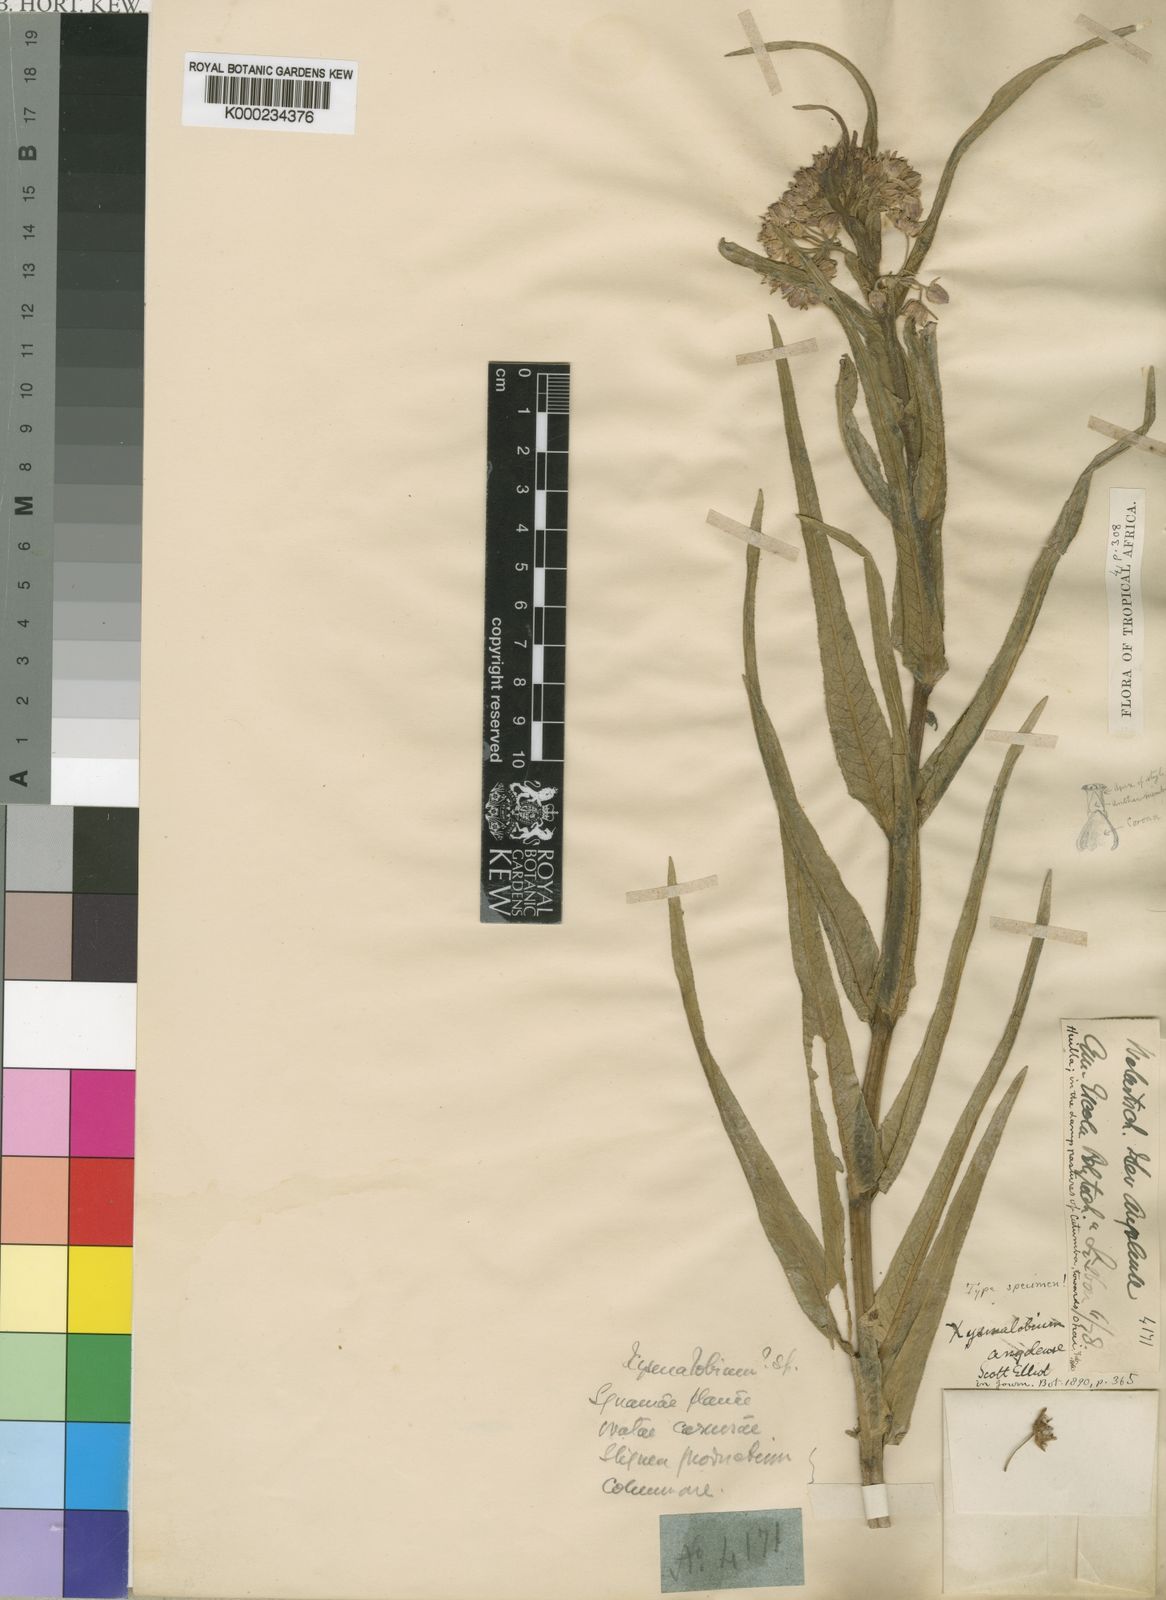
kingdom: Plantae
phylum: Tracheophyta
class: Magnoliopsida
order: Gentianales
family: Apocynaceae
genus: Xysmalobium
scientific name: Xysmalobium undulatum
